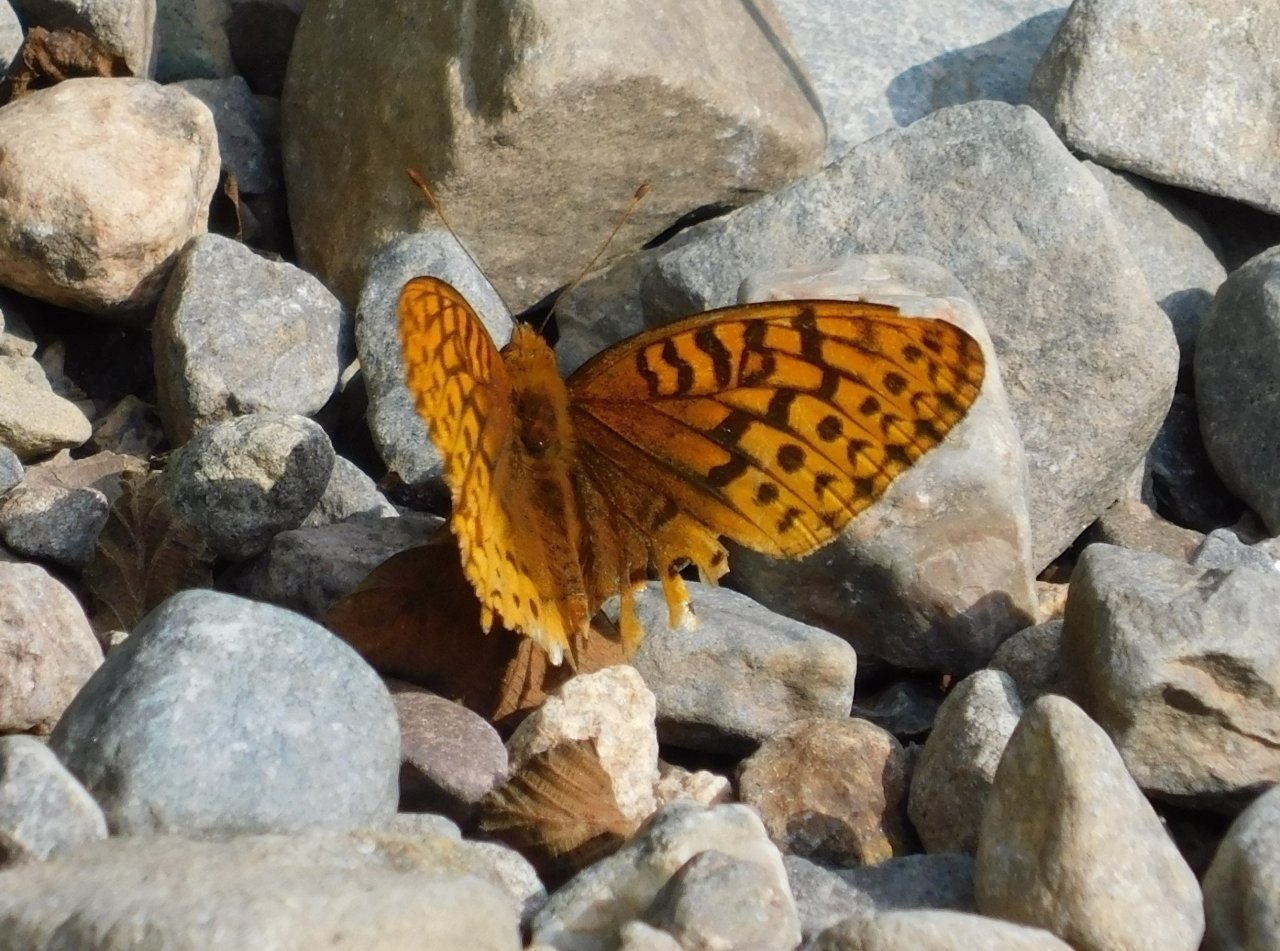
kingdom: Animalia
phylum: Arthropoda
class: Insecta
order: Lepidoptera
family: Nymphalidae
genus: Speyeria
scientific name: Speyeria cybele
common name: Great Spangled Fritillary
